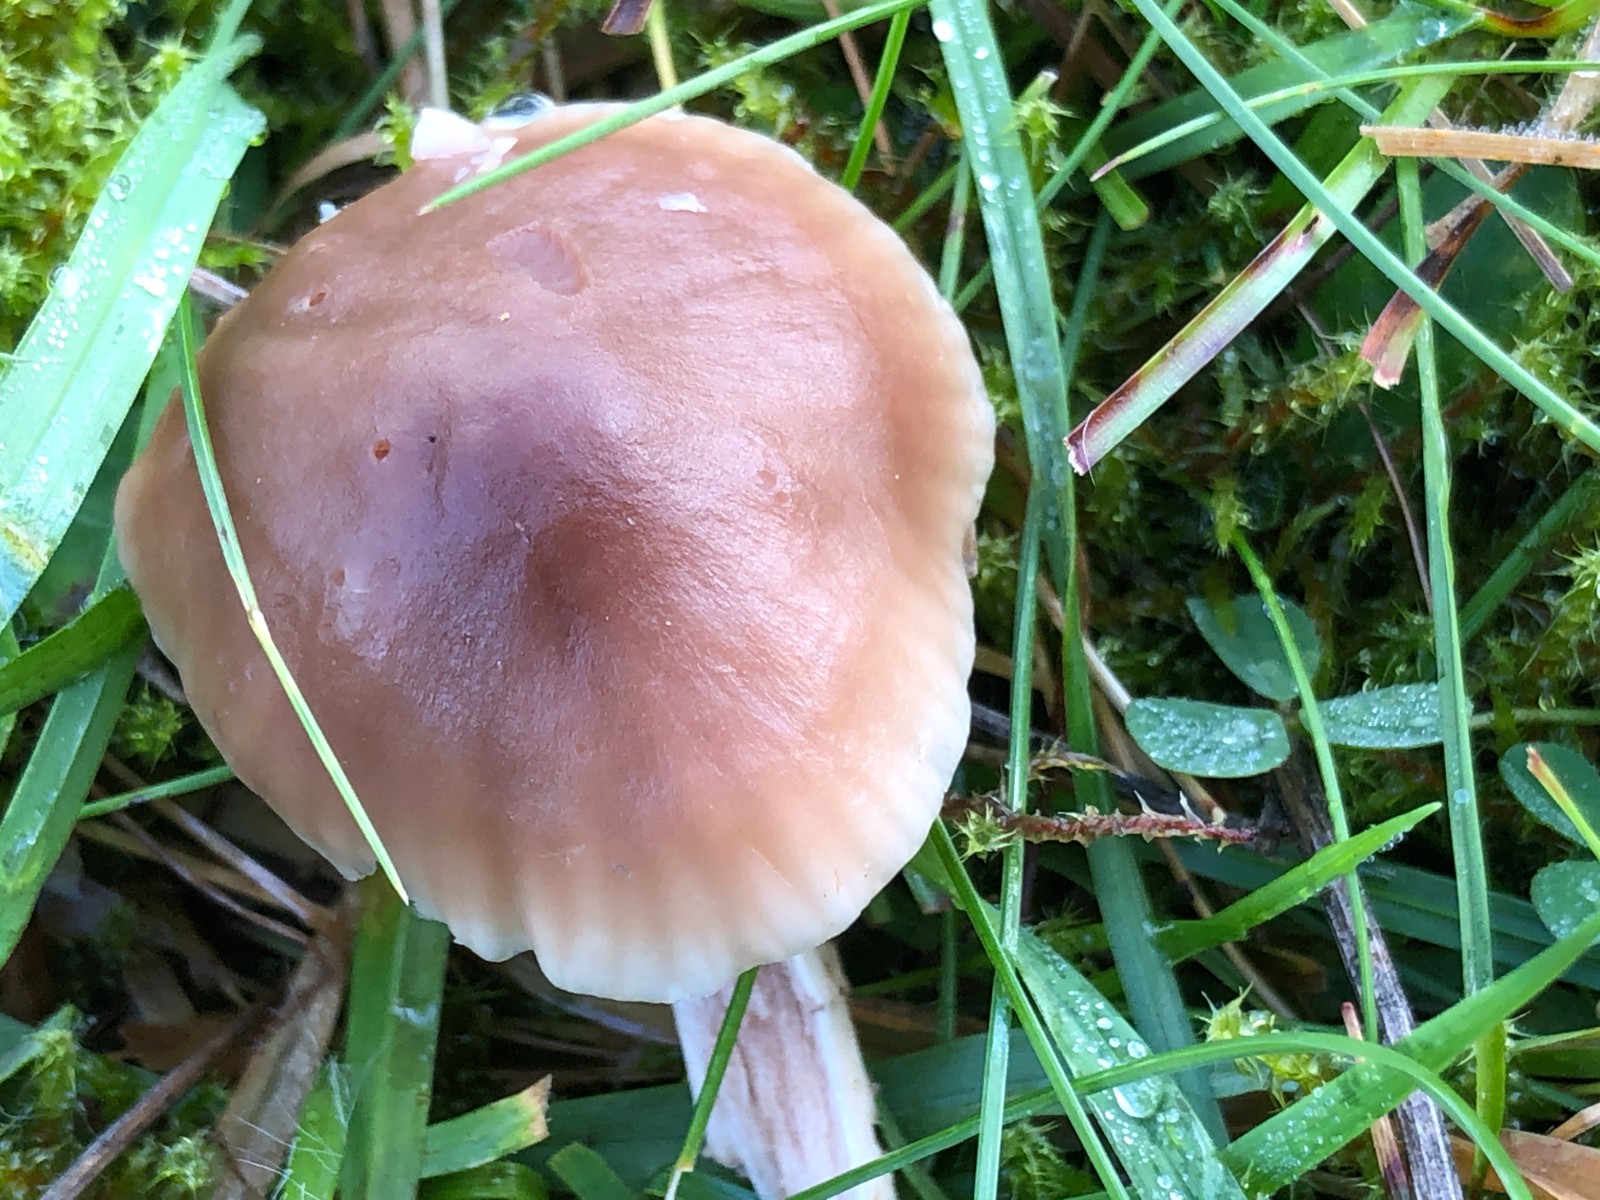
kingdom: Fungi
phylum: Basidiomycota
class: Agaricomycetes
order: Agaricales
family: Hygrophoraceae
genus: Cuphophyllus
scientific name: Cuphophyllus colemannianus
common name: rødbrun vokshat
